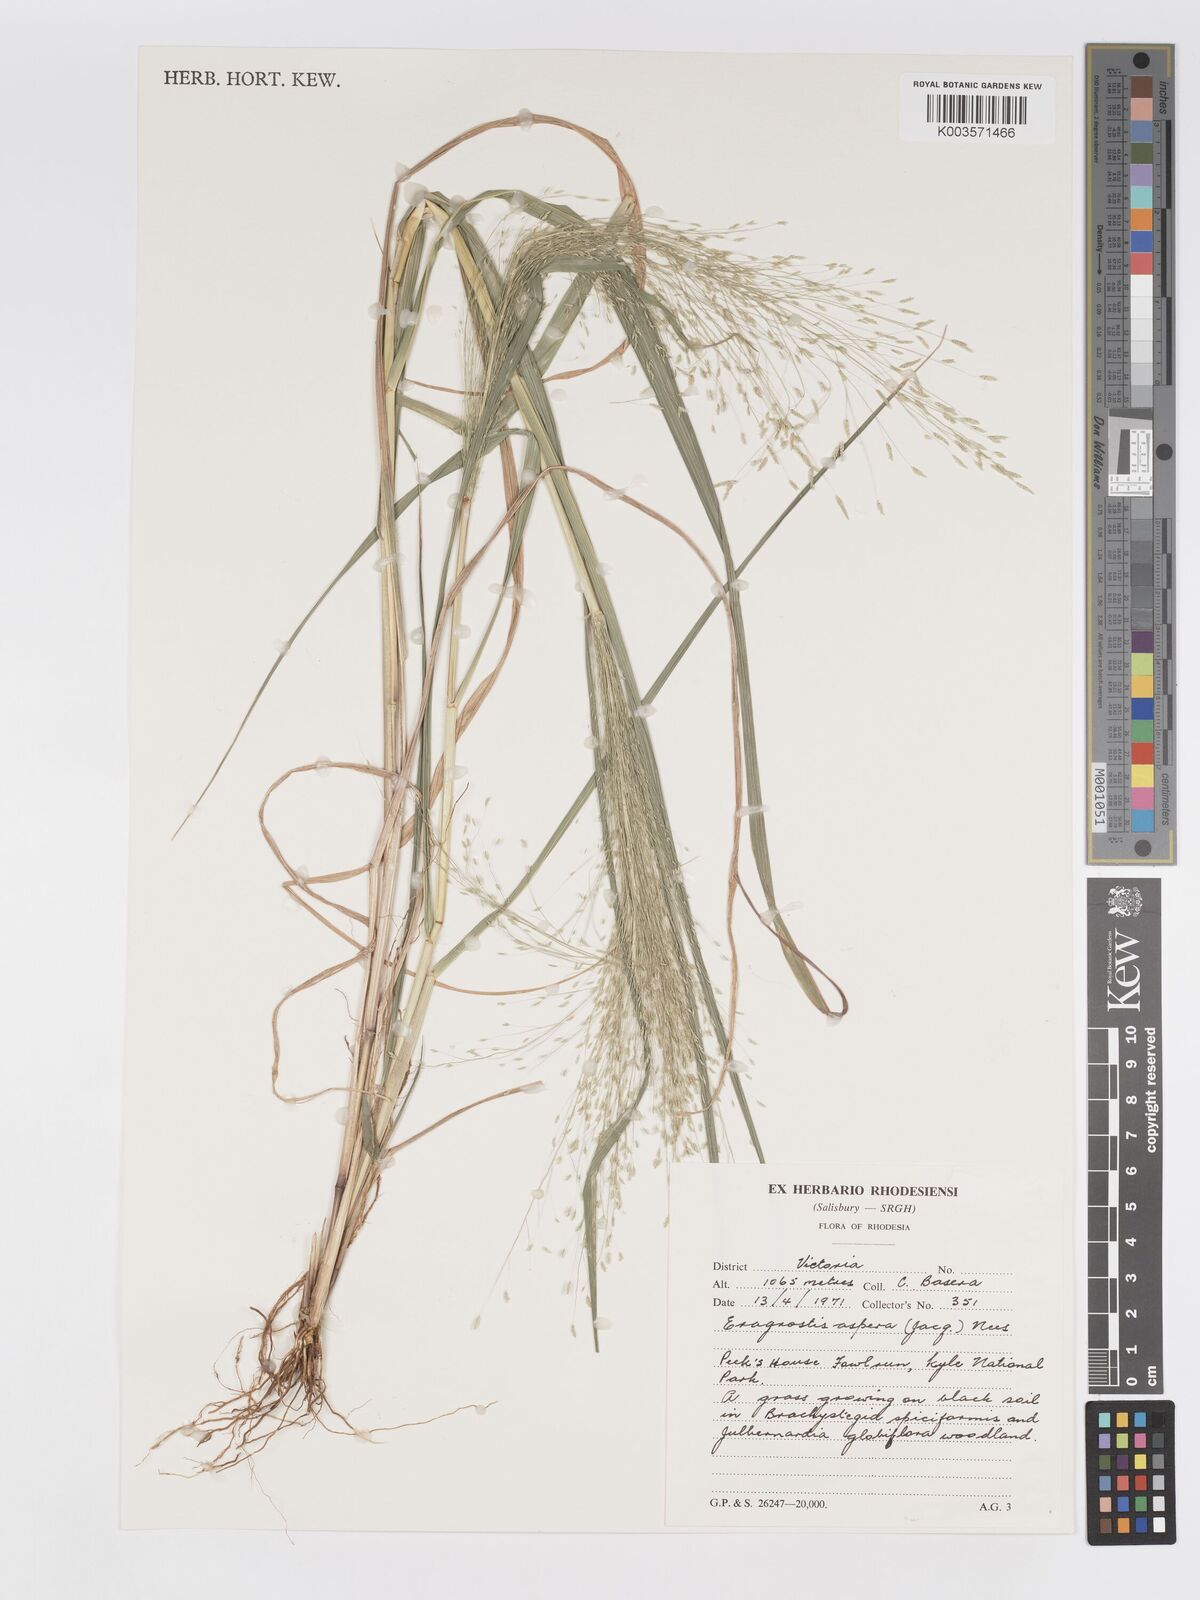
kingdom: Plantae
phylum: Tracheophyta
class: Liliopsida
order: Poales
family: Poaceae
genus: Eragrostis
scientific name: Eragrostis aspera
